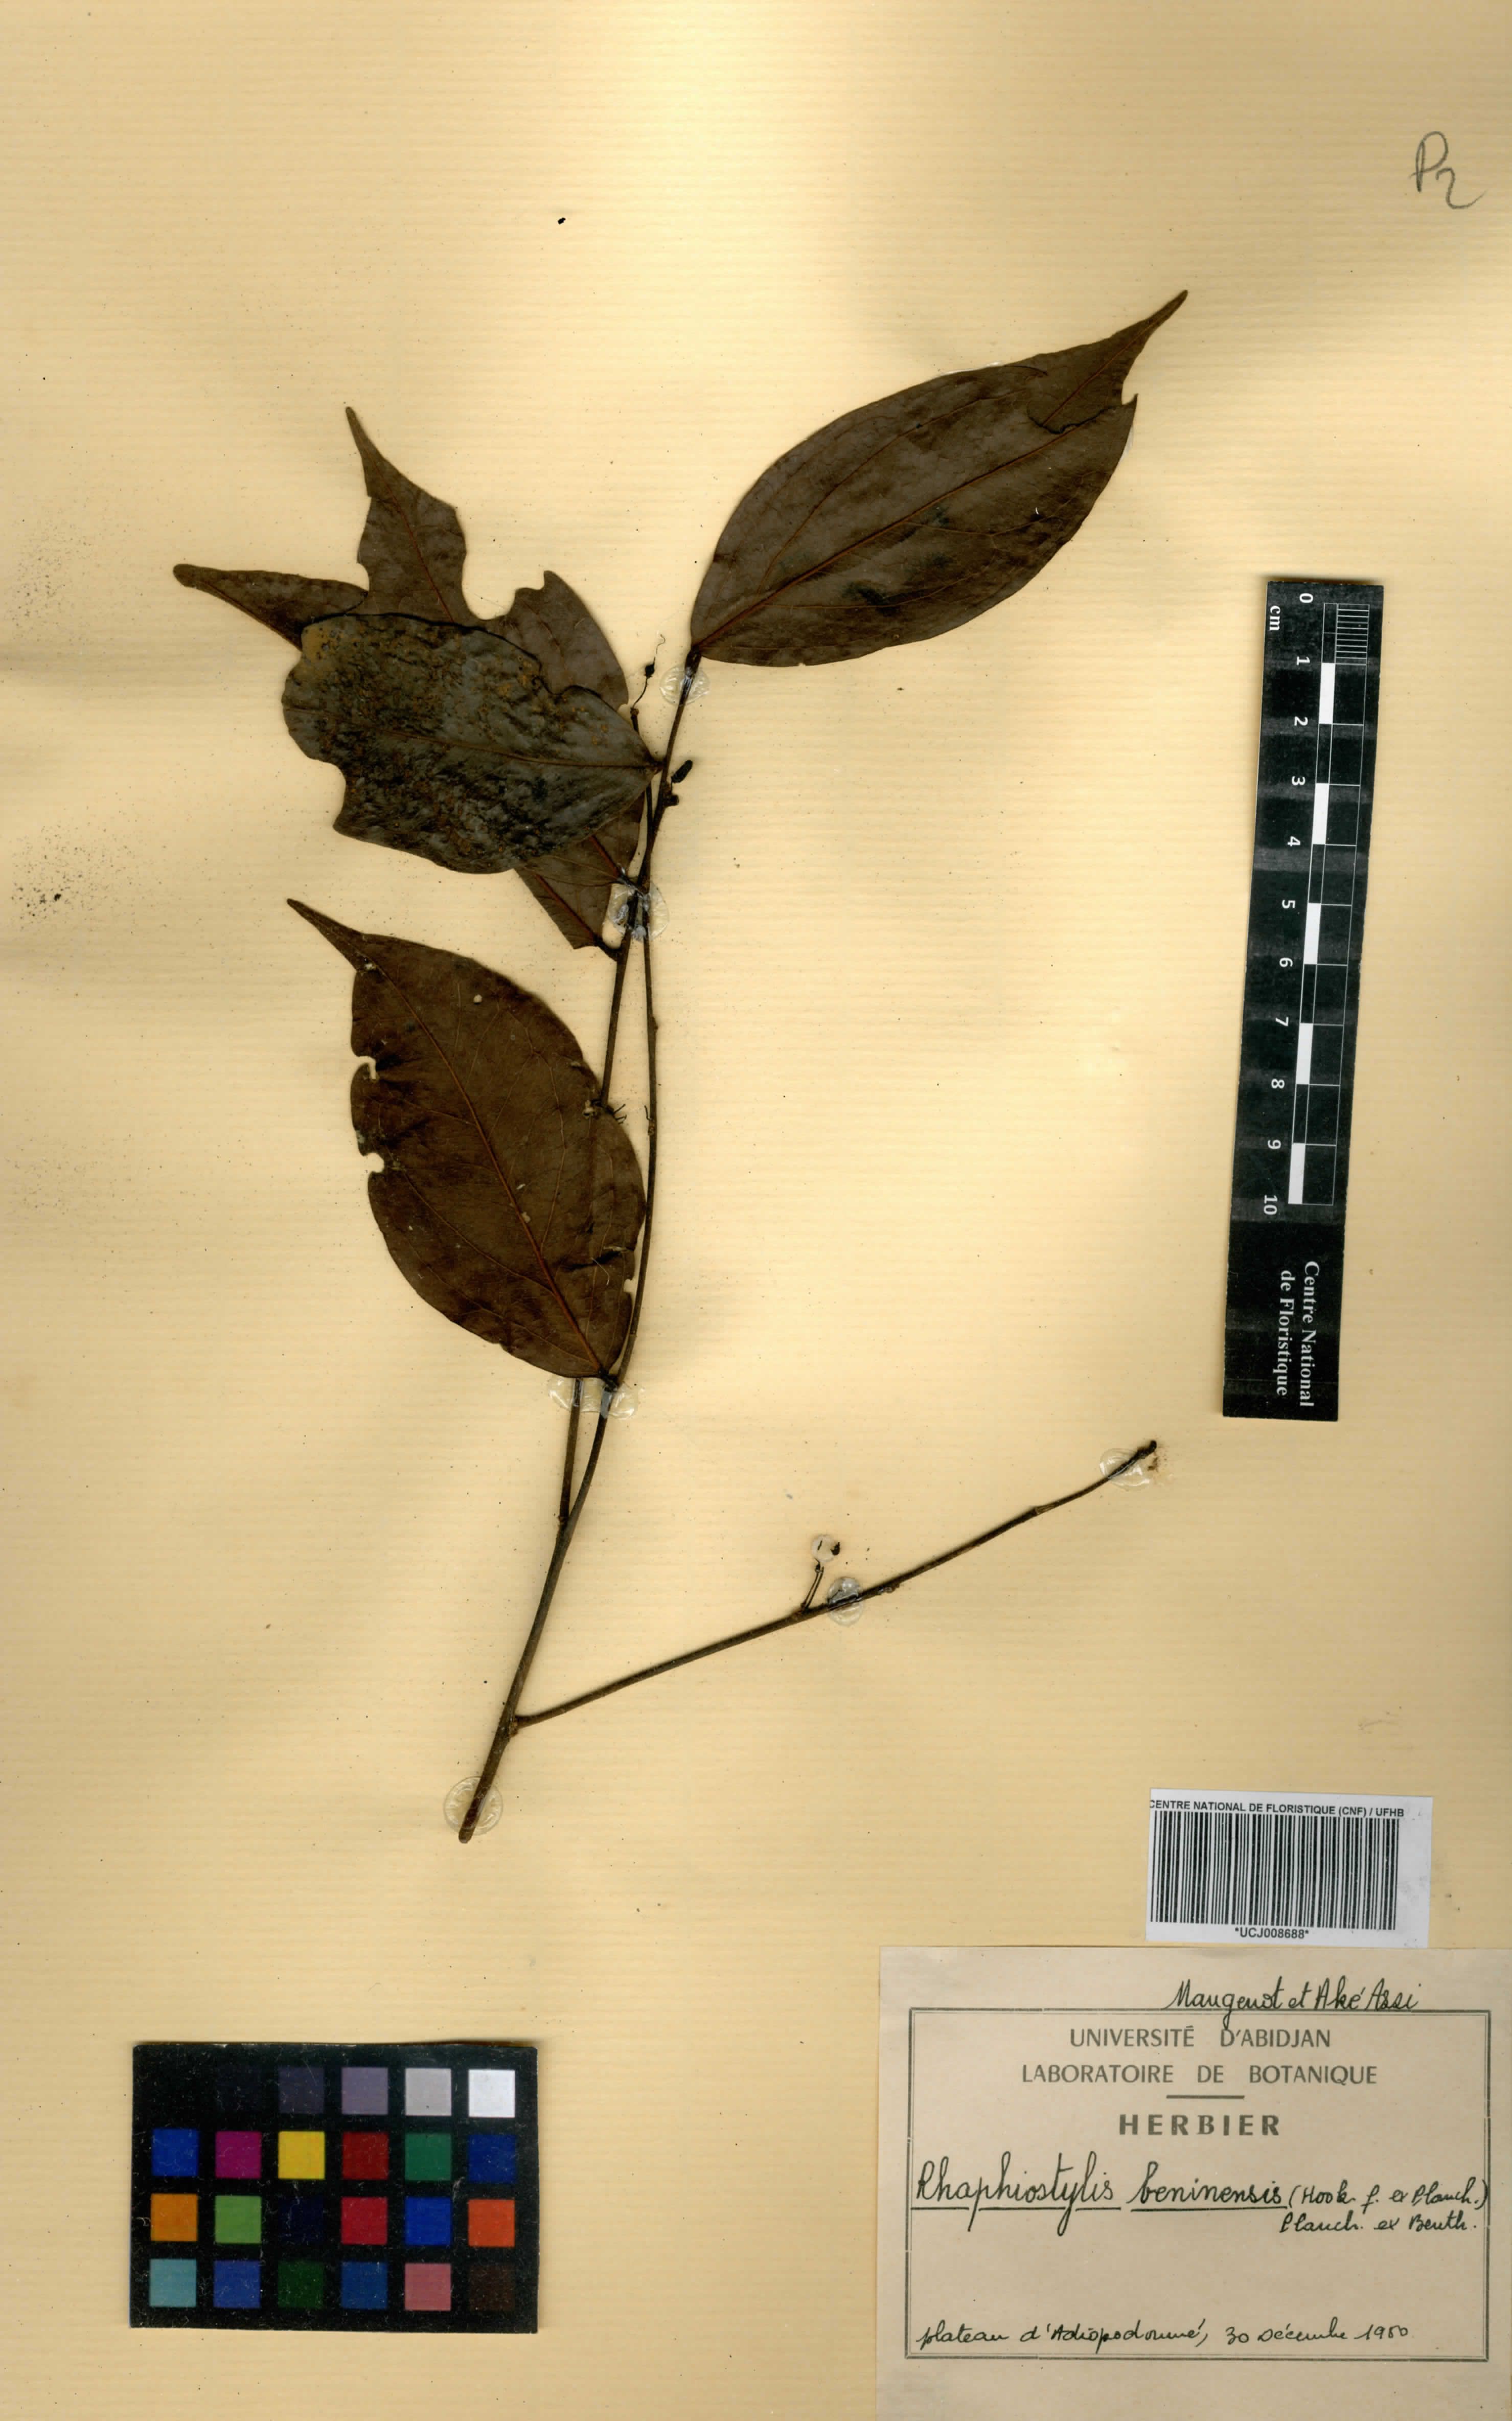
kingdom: Plantae
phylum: Tracheophyta
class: Magnoliopsida
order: Metteniusales
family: Metteniusaceae
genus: Rhaphiostylis
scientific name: Rhaphiostylis beninensis
